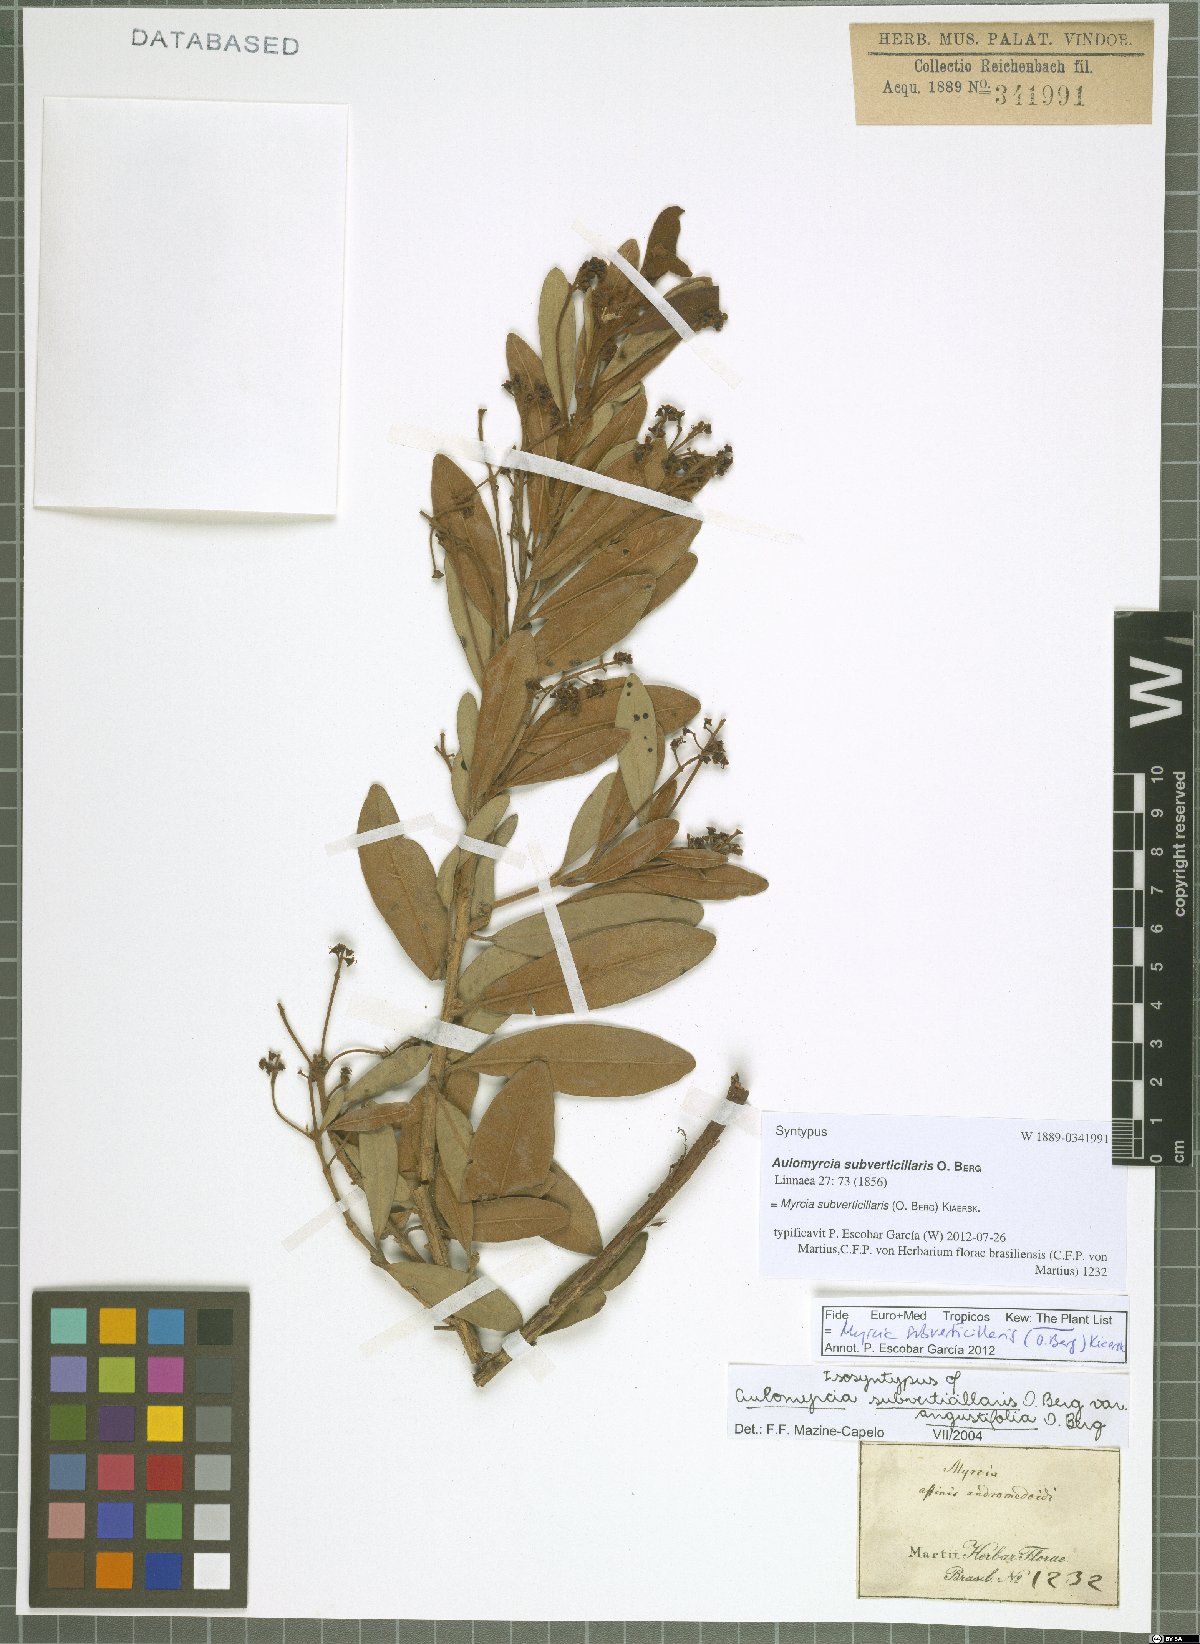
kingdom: Plantae
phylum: Tracheophyta
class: Magnoliopsida
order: Myrtales
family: Myrtaceae
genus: Myrcia
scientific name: Myrcia subverticillaris
